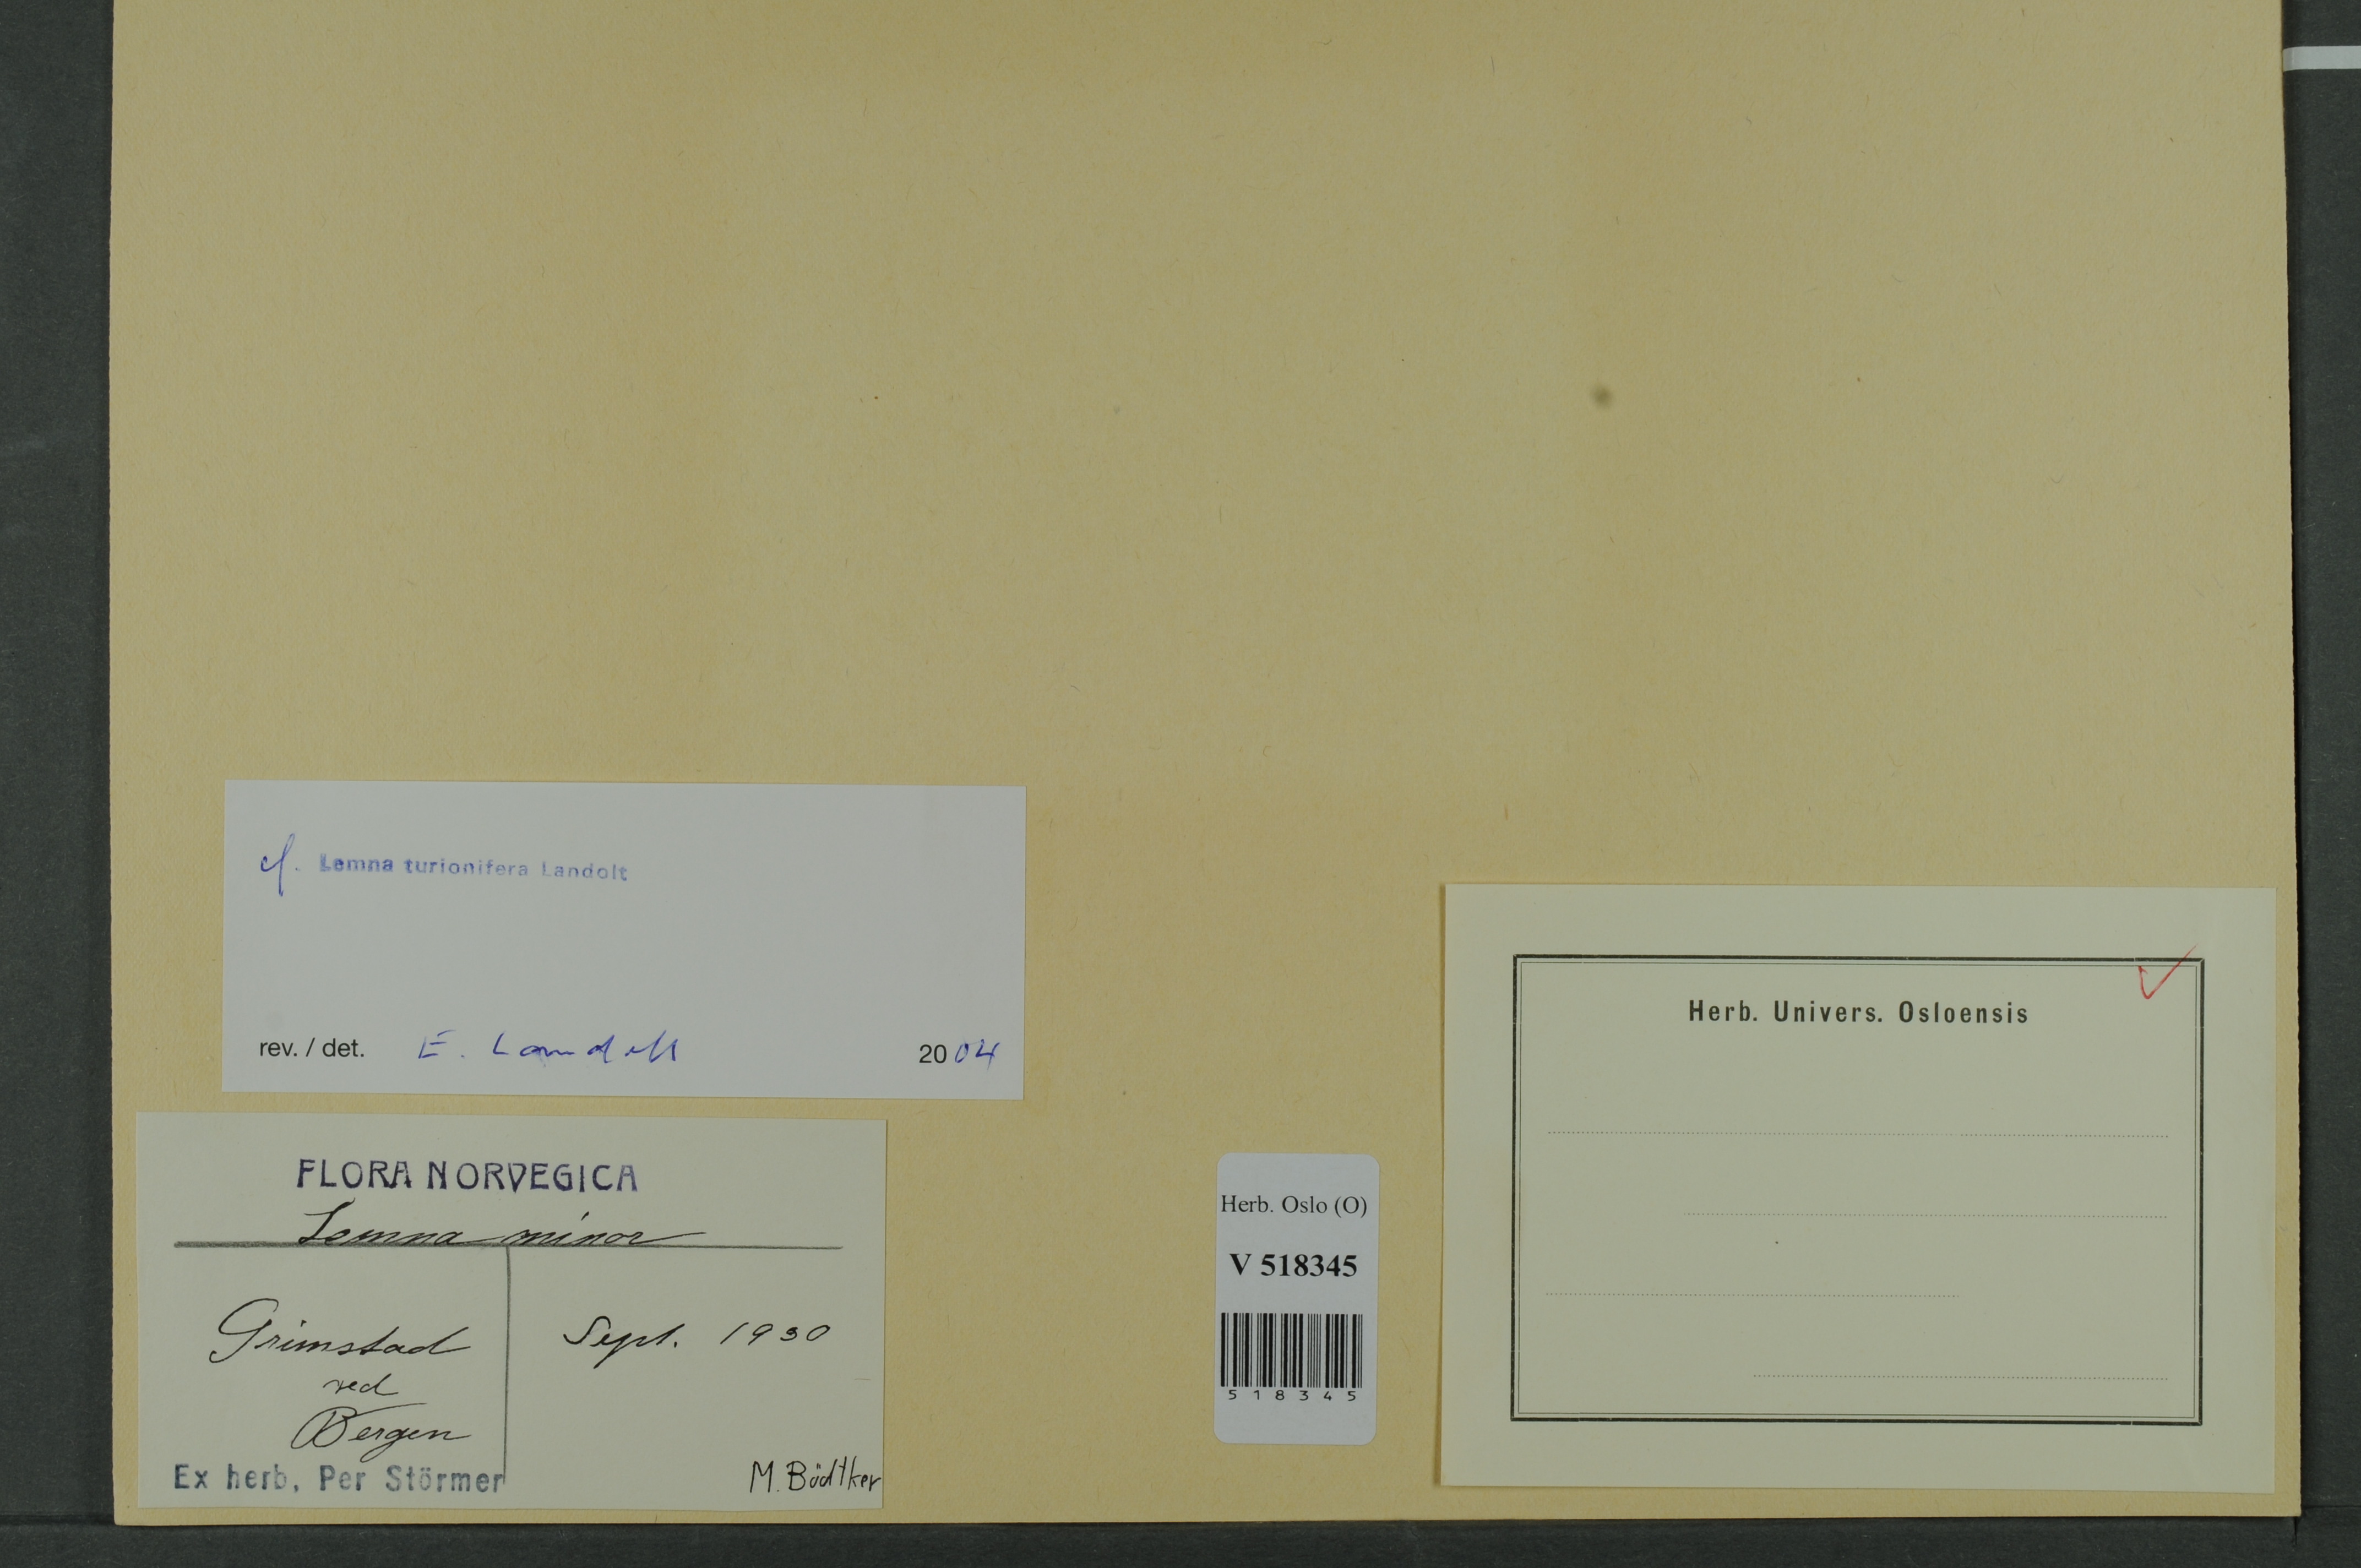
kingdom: Plantae
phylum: Tracheophyta
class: Liliopsida
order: Alismatales
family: Araceae
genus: Lemna
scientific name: Lemna turionifera
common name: Perennial duckweed
